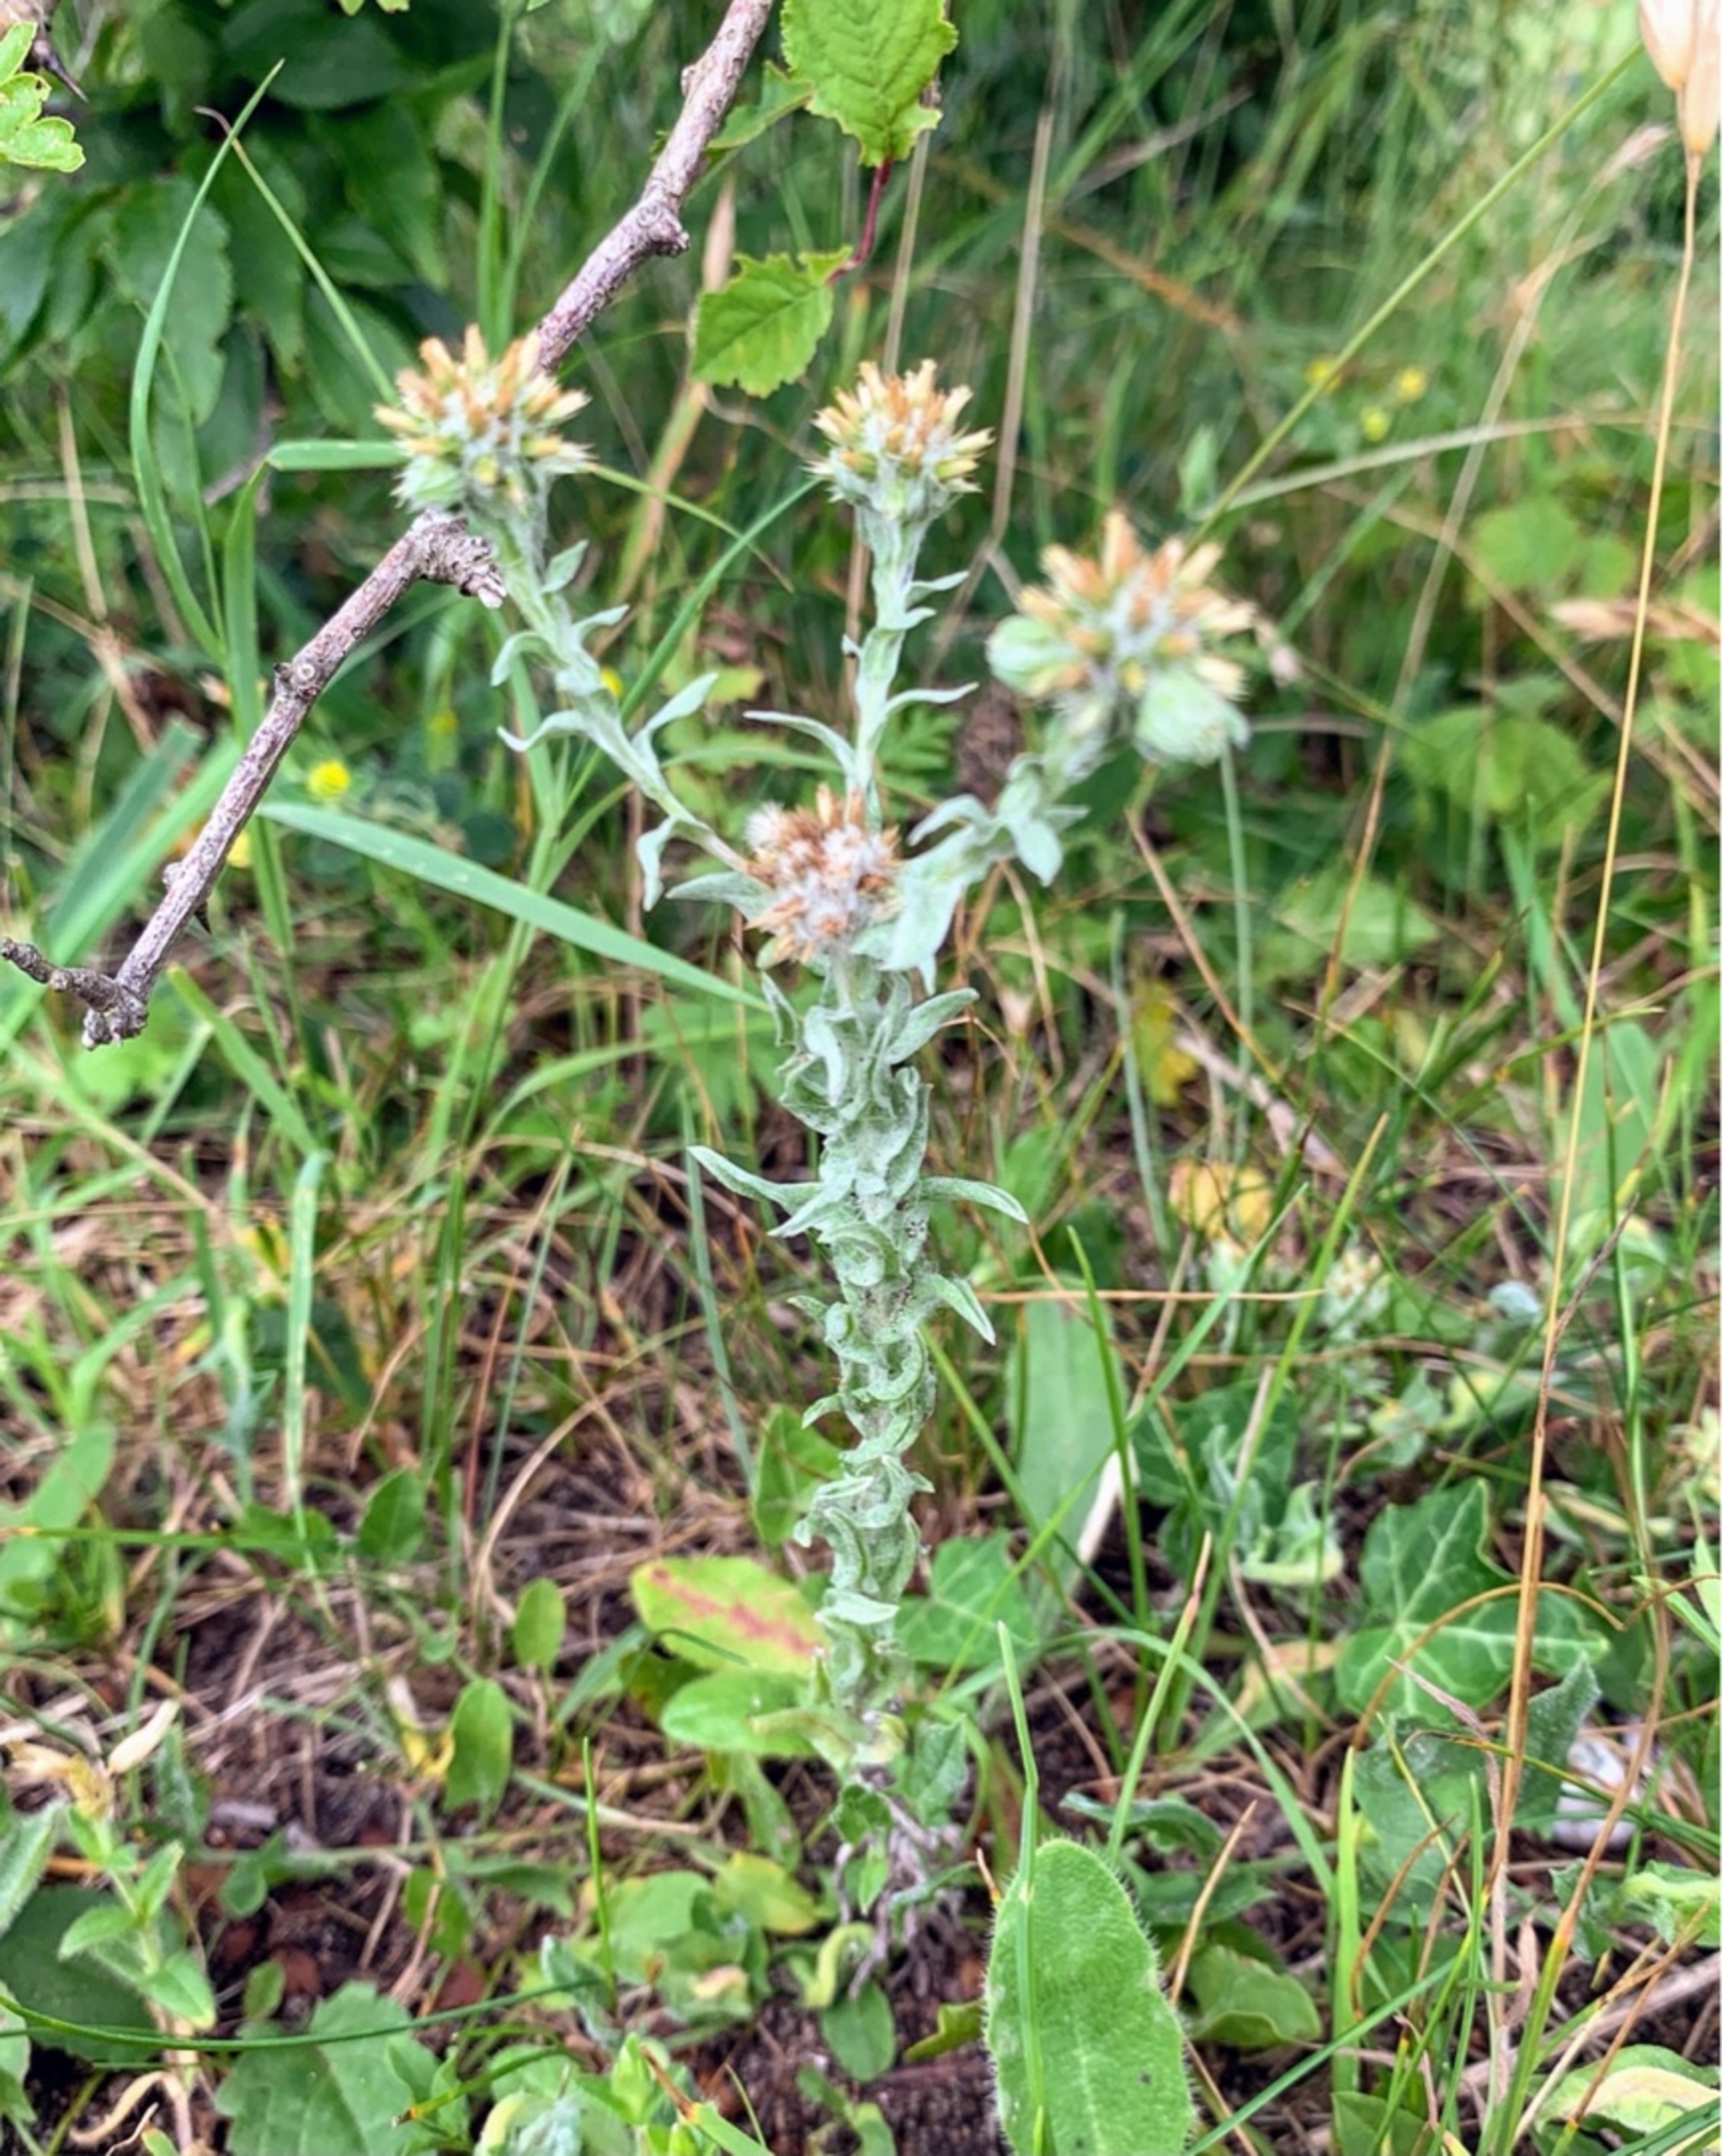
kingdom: Plantae
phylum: Tracheophyta
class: Magnoliopsida
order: Asterales
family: Asteraceae
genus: Filago
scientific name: Filago germanica
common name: Kugle-museurt
